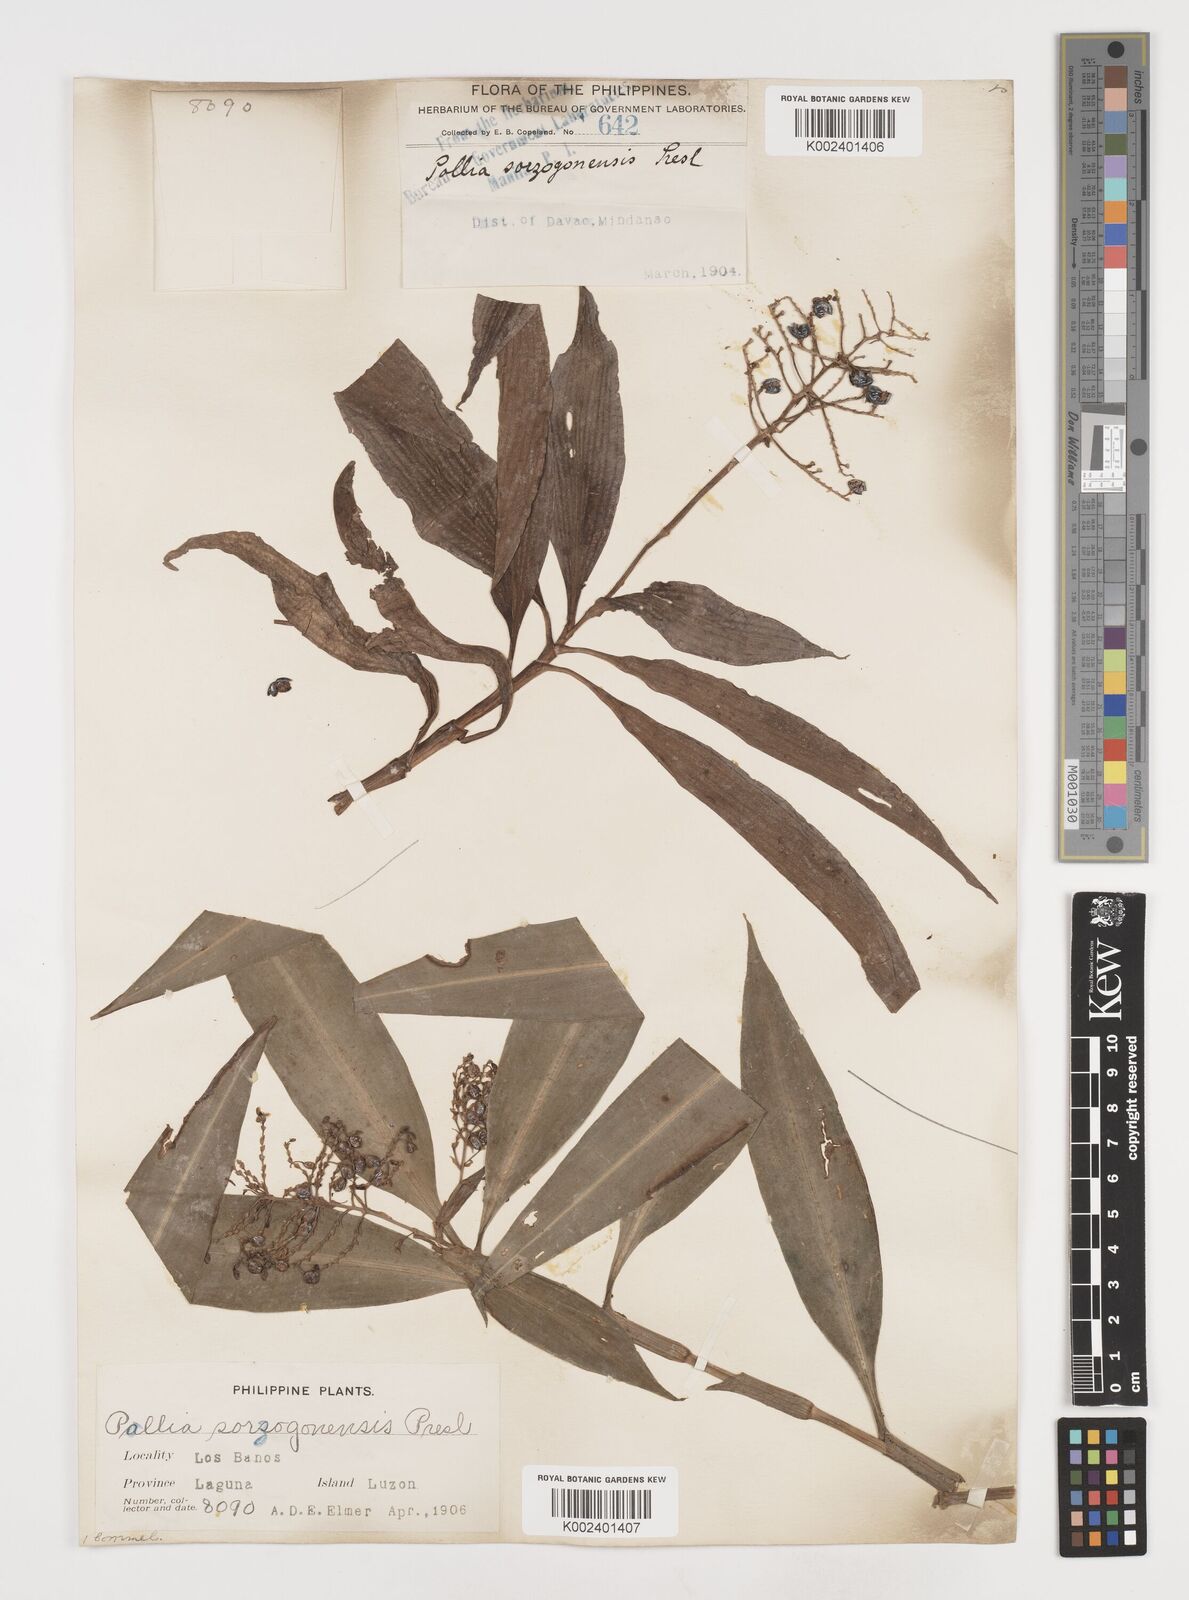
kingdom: Plantae
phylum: Tracheophyta
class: Liliopsida
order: Commelinales
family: Commelinaceae
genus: Pollia
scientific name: Pollia secundiflora
